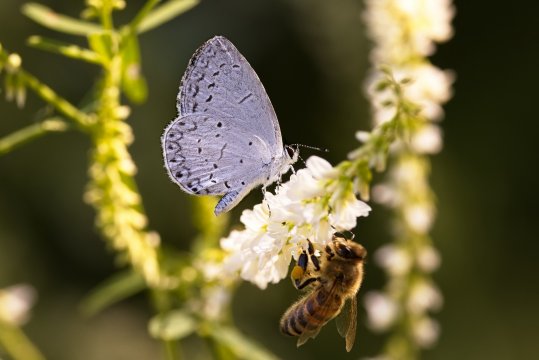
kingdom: Animalia
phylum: Arthropoda
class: Insecta
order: Lepidoptera
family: Lycaenidae
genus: Cyaniris
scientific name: Cyaniris neglecta
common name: Summer Azure
